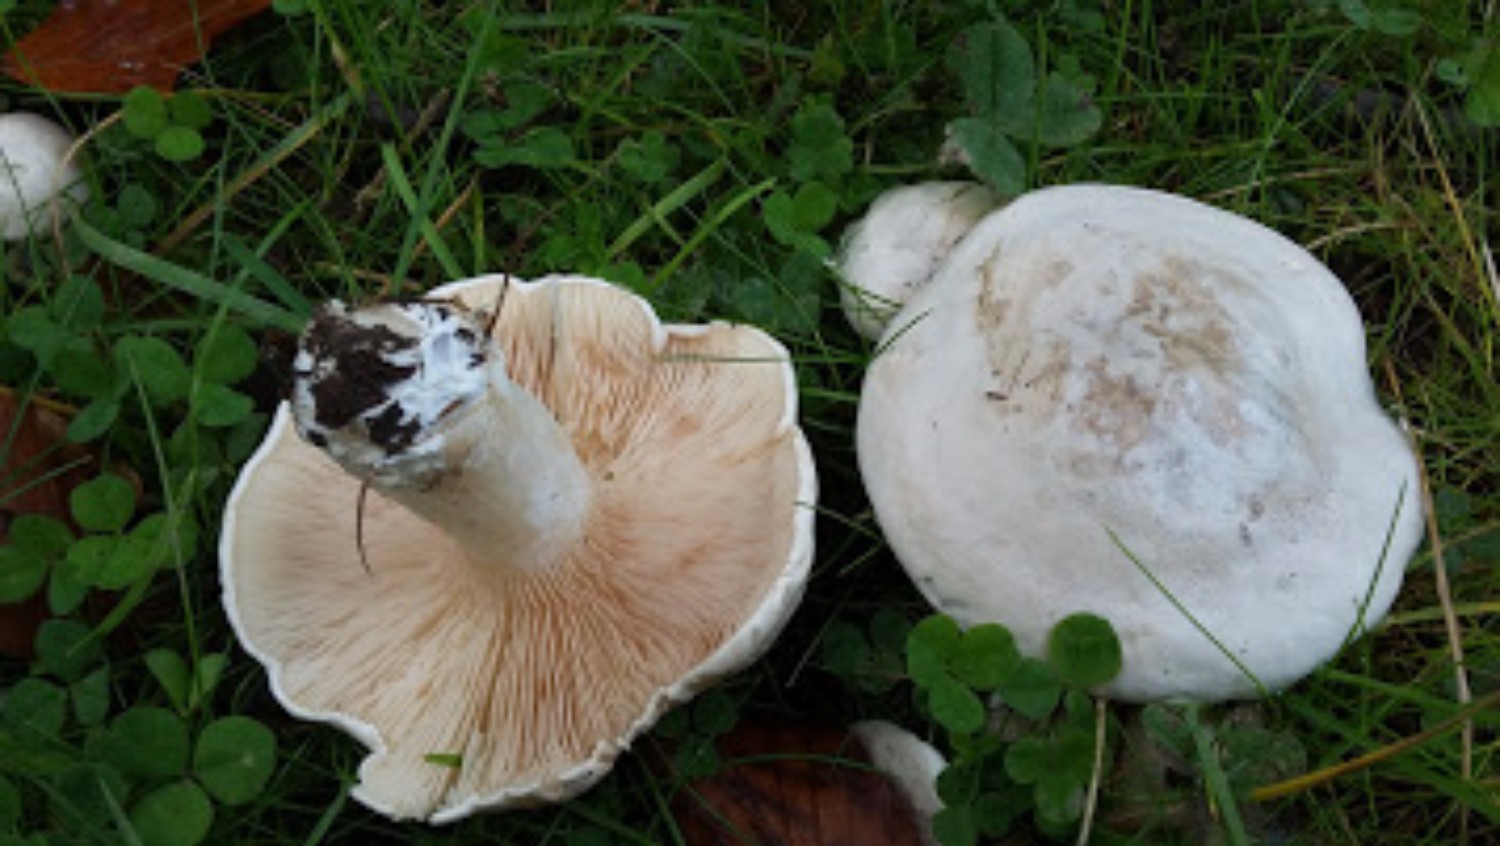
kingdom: Fungi
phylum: Basidiomycota
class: Agaricomycetes
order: Agaricales
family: Entolomataceae
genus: Clitopilus
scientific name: Clitopilus prunulus
